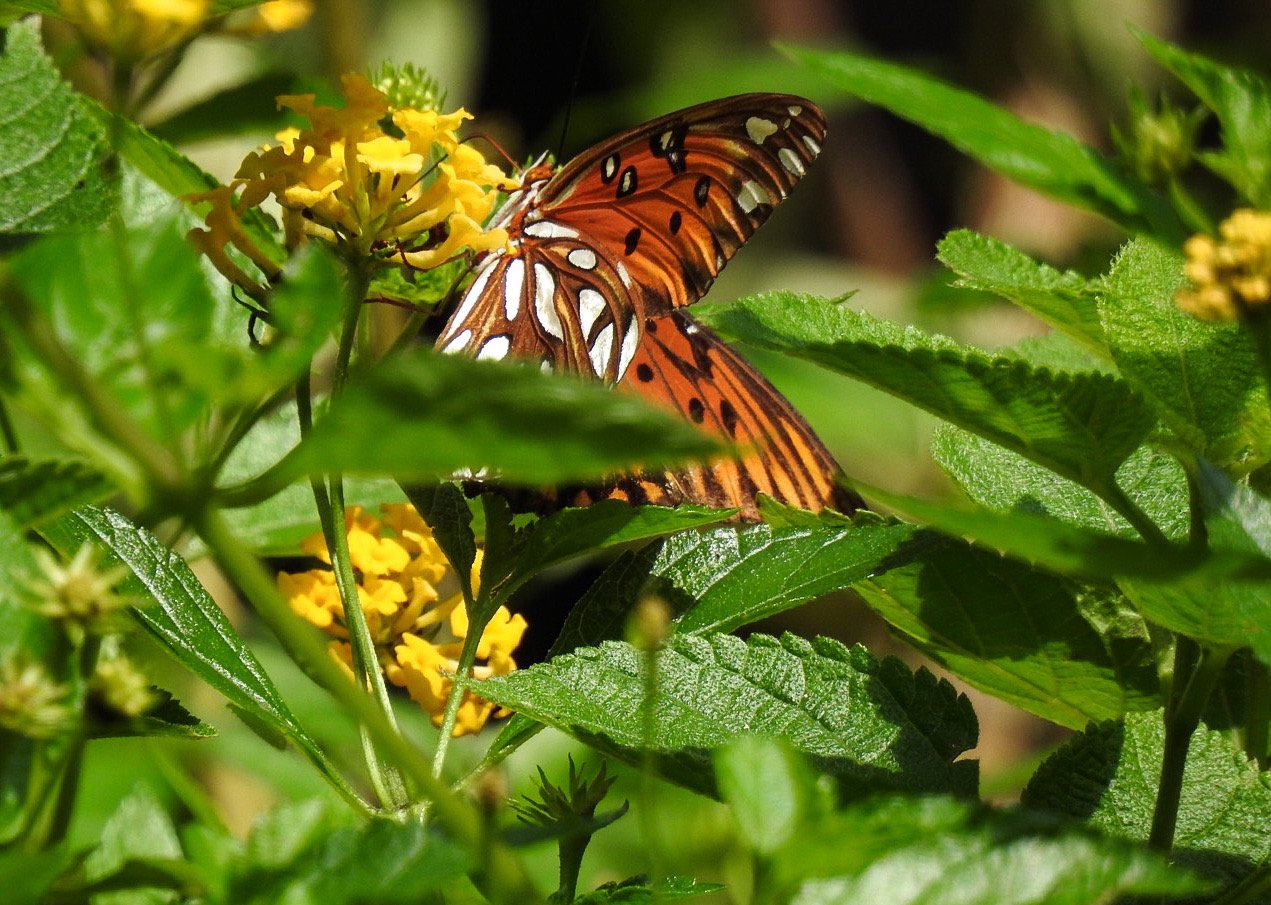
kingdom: Animalia
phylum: Arthropoda
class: Insecta
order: Lepidoptera
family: Nymphalidae
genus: Dione
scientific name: Dione vanillae
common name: Gulf Fritillary
